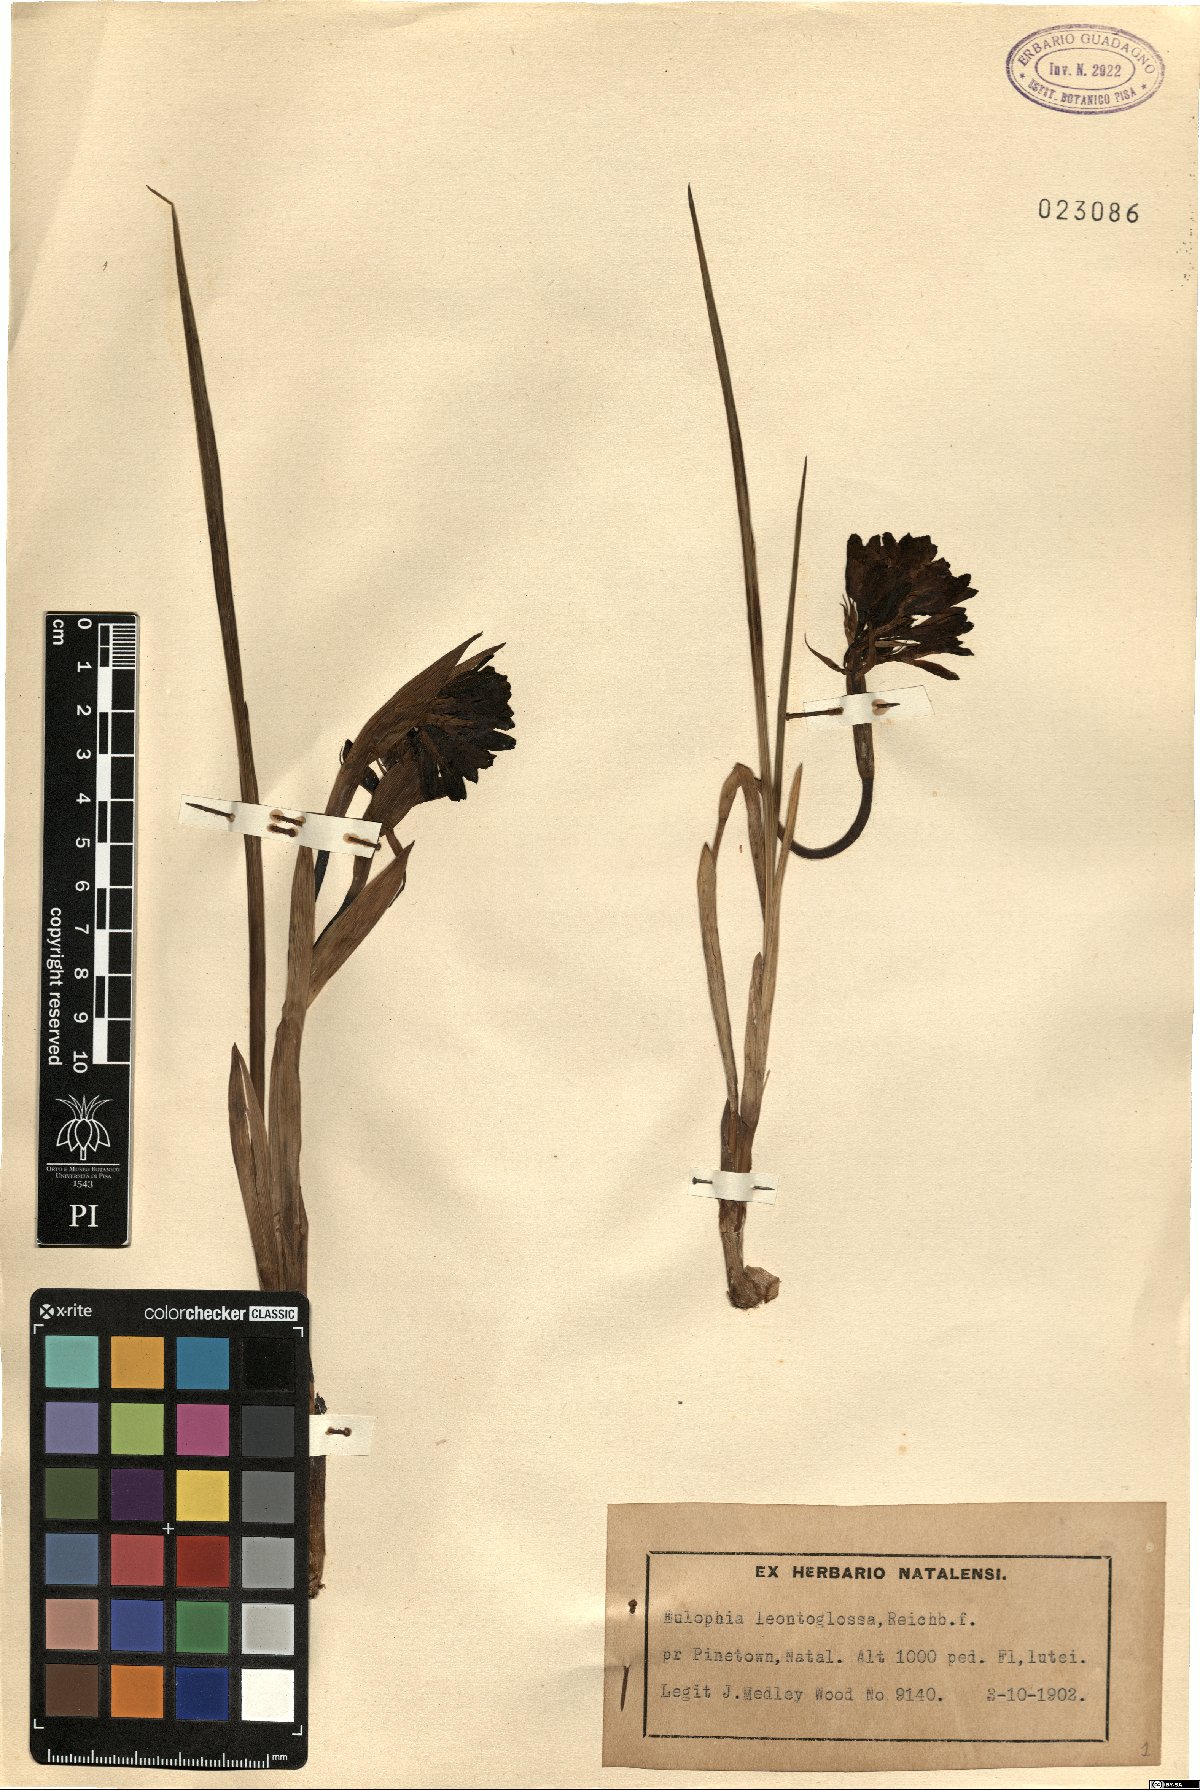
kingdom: Plantae
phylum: Tracheophyta
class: Liliopsida
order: Asparagales
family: Orchidaceae
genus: Eulophia
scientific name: Eulophia leontoglossa
